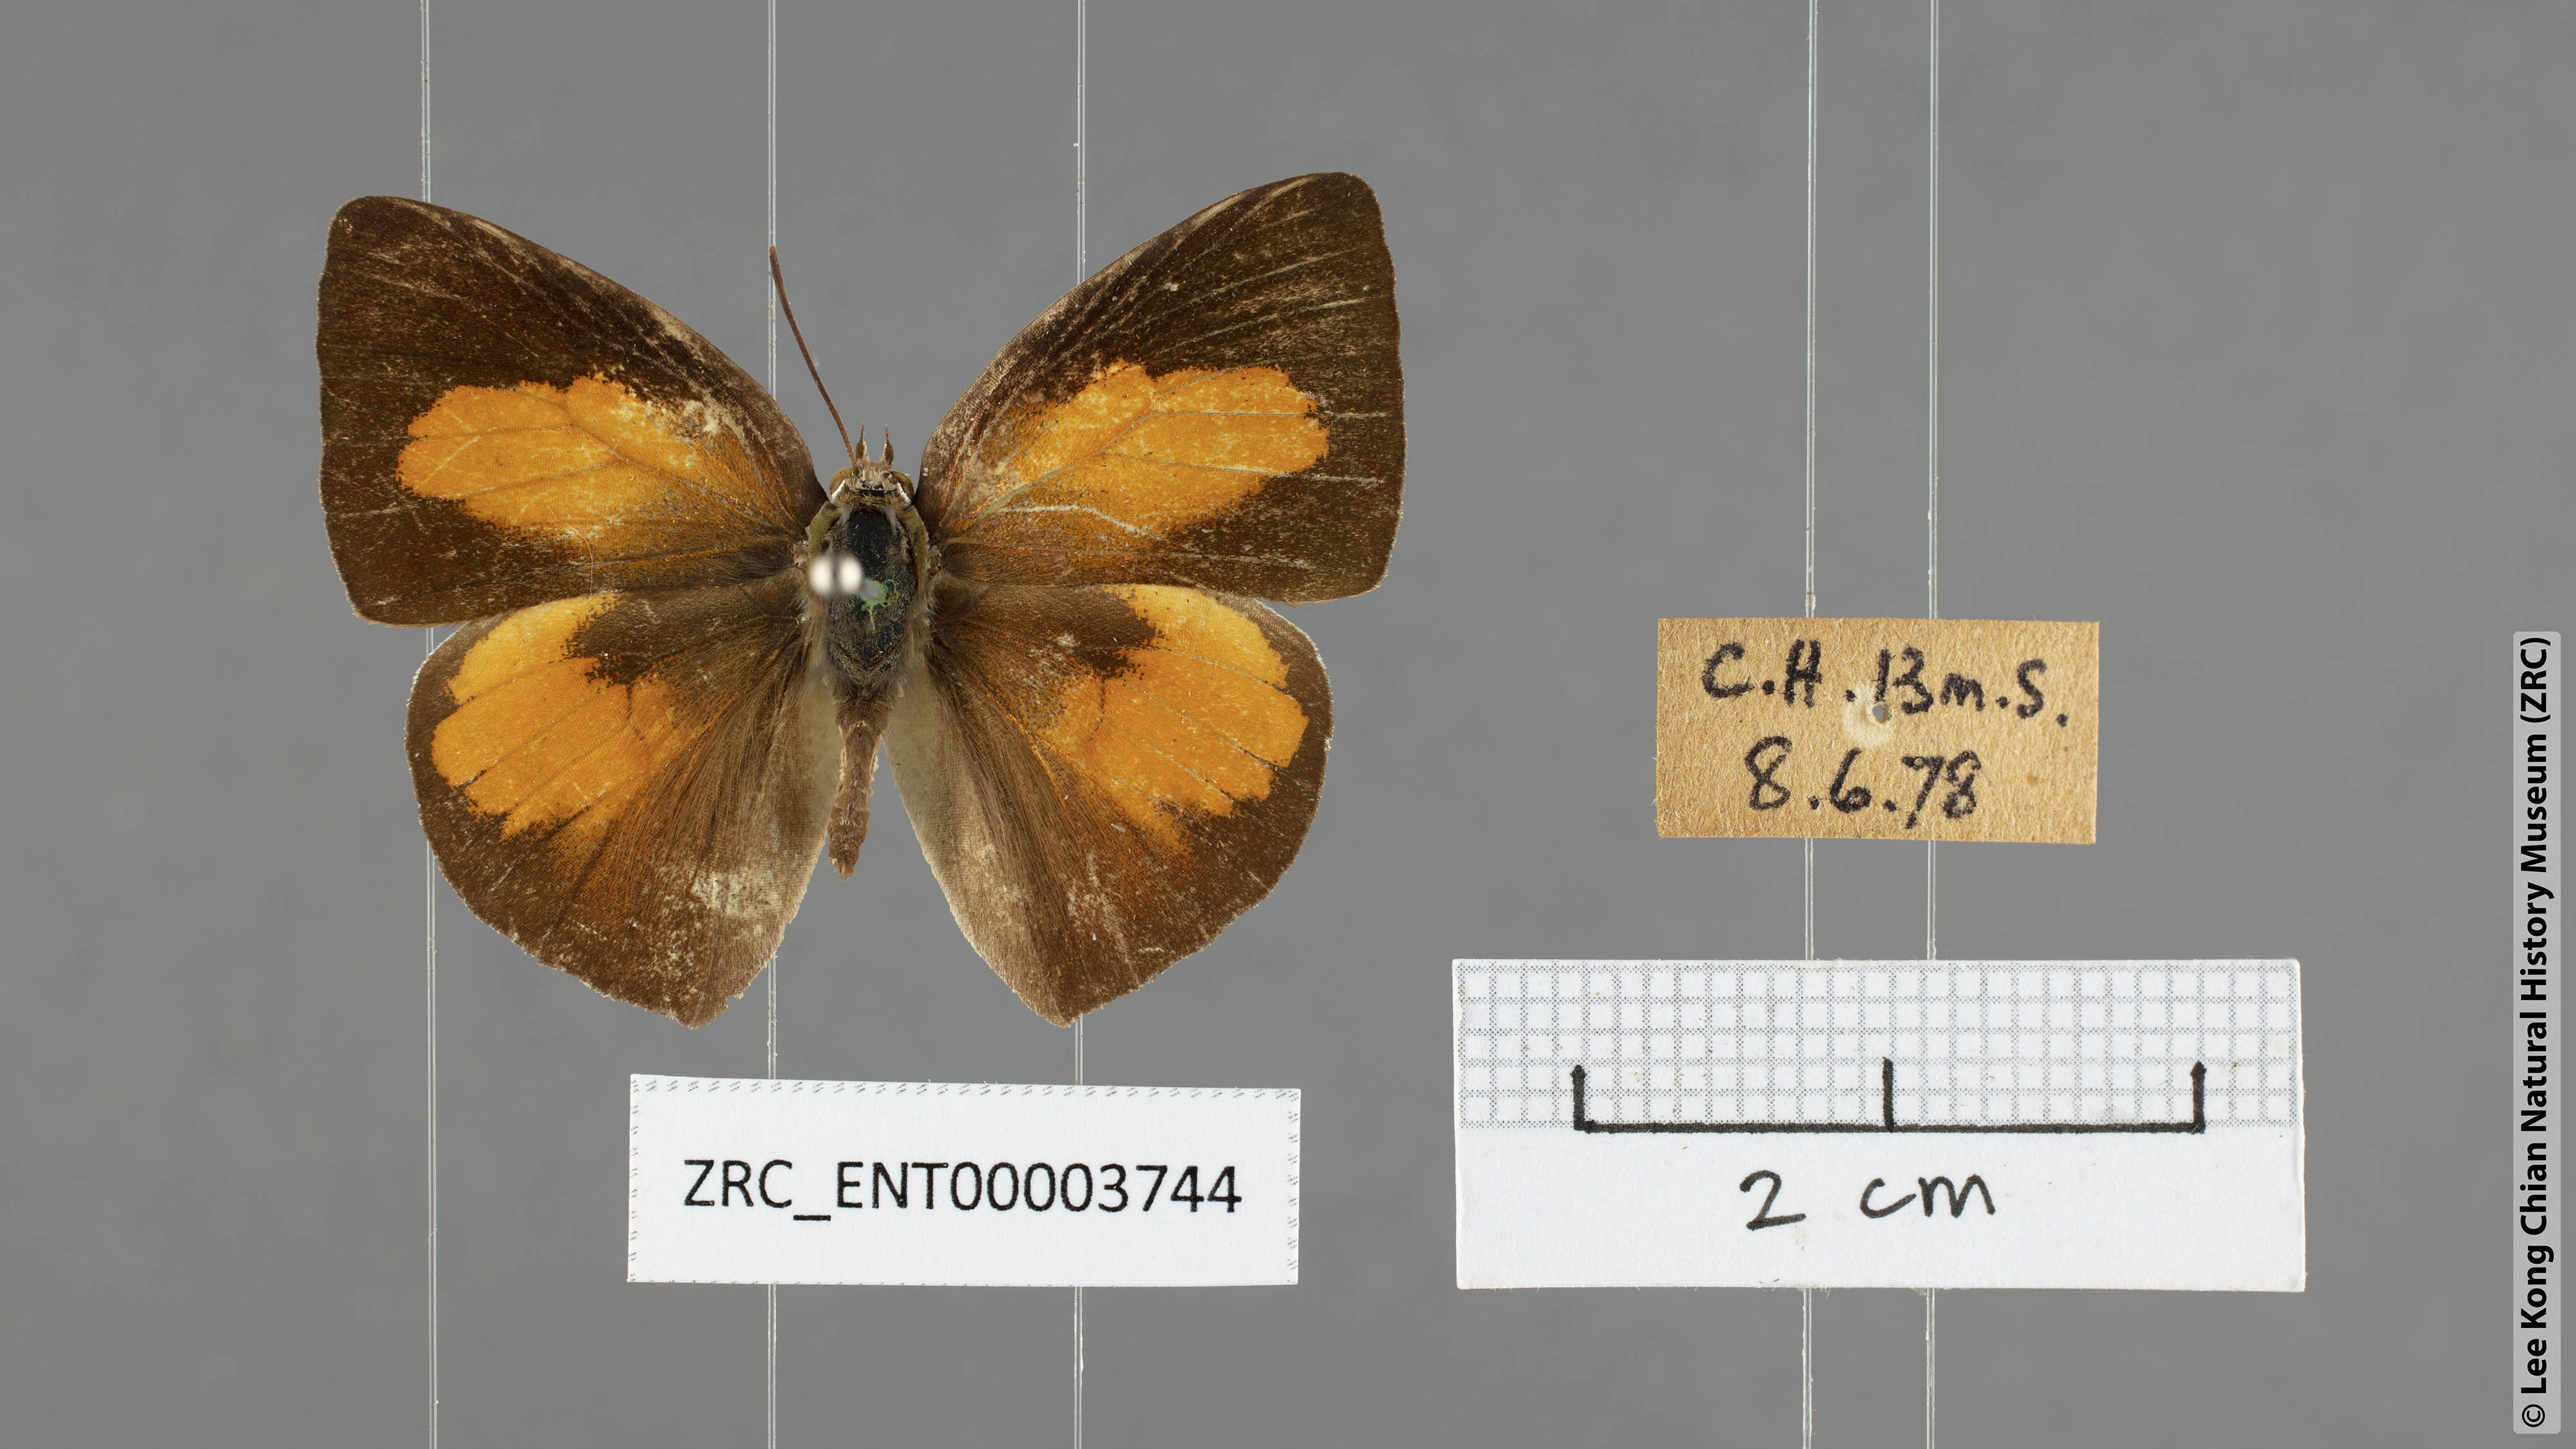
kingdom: Animalia
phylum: Arthropoda
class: Insecta
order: Lepidoptera
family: Lycaenidae
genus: Curetis
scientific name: Curetis santana
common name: Malayan sunbeam
